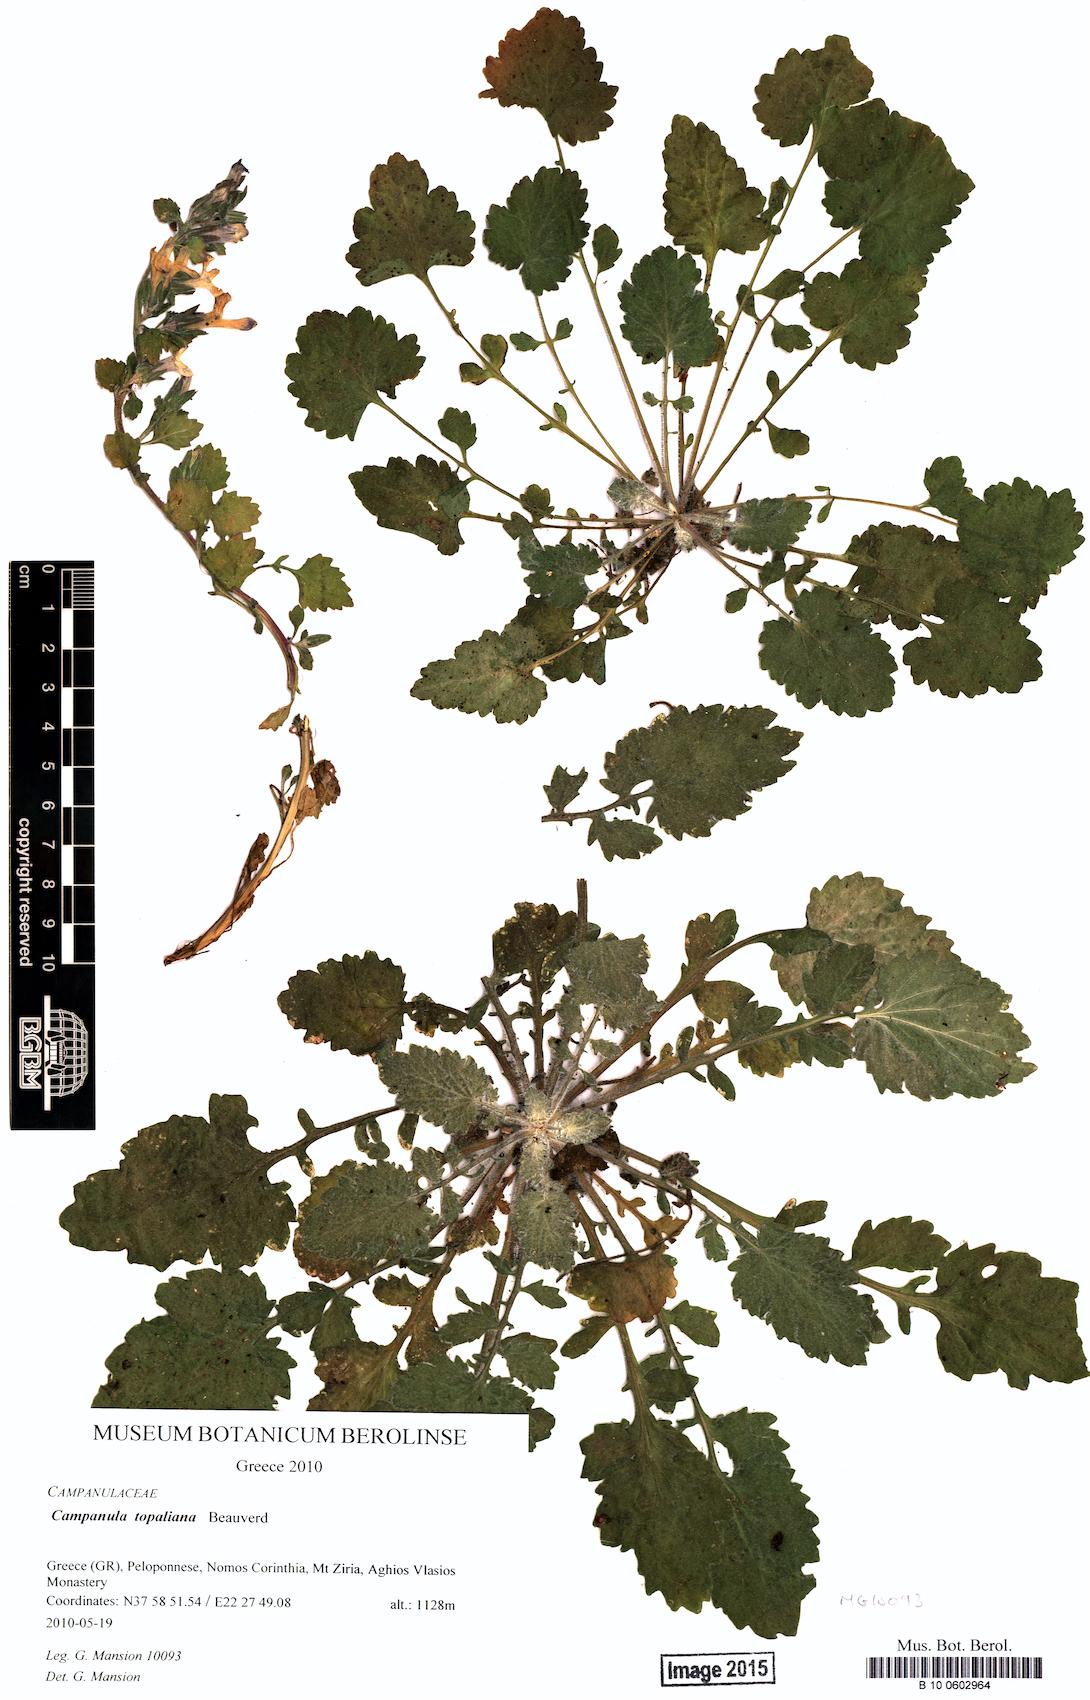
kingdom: Plantae
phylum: Tracheophyta
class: Magnoliopsida
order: Asterales
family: Campanulaceae
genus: Campanula
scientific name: Campanula topaliana
